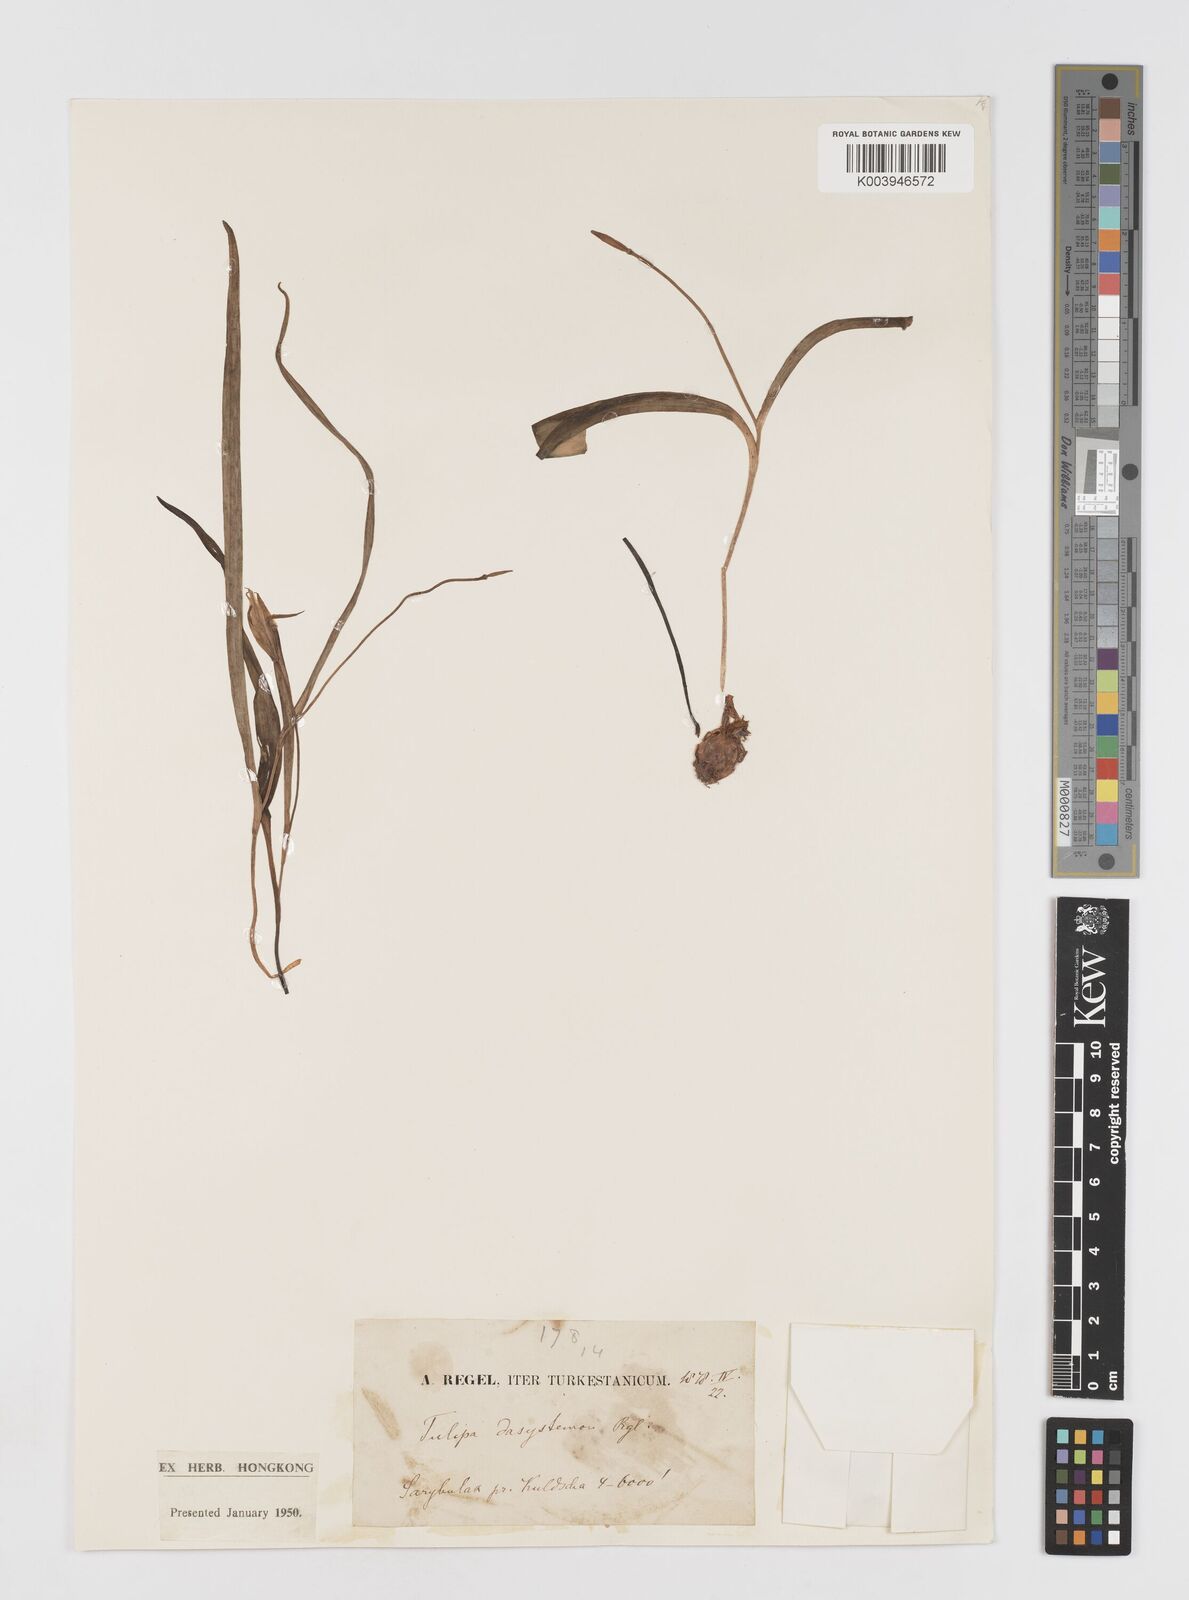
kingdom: Plantae
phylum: Tracheophyta
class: Liliopsida
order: Liliales
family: Liliaceae
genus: Tulipa
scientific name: Tulipa dasystemon
